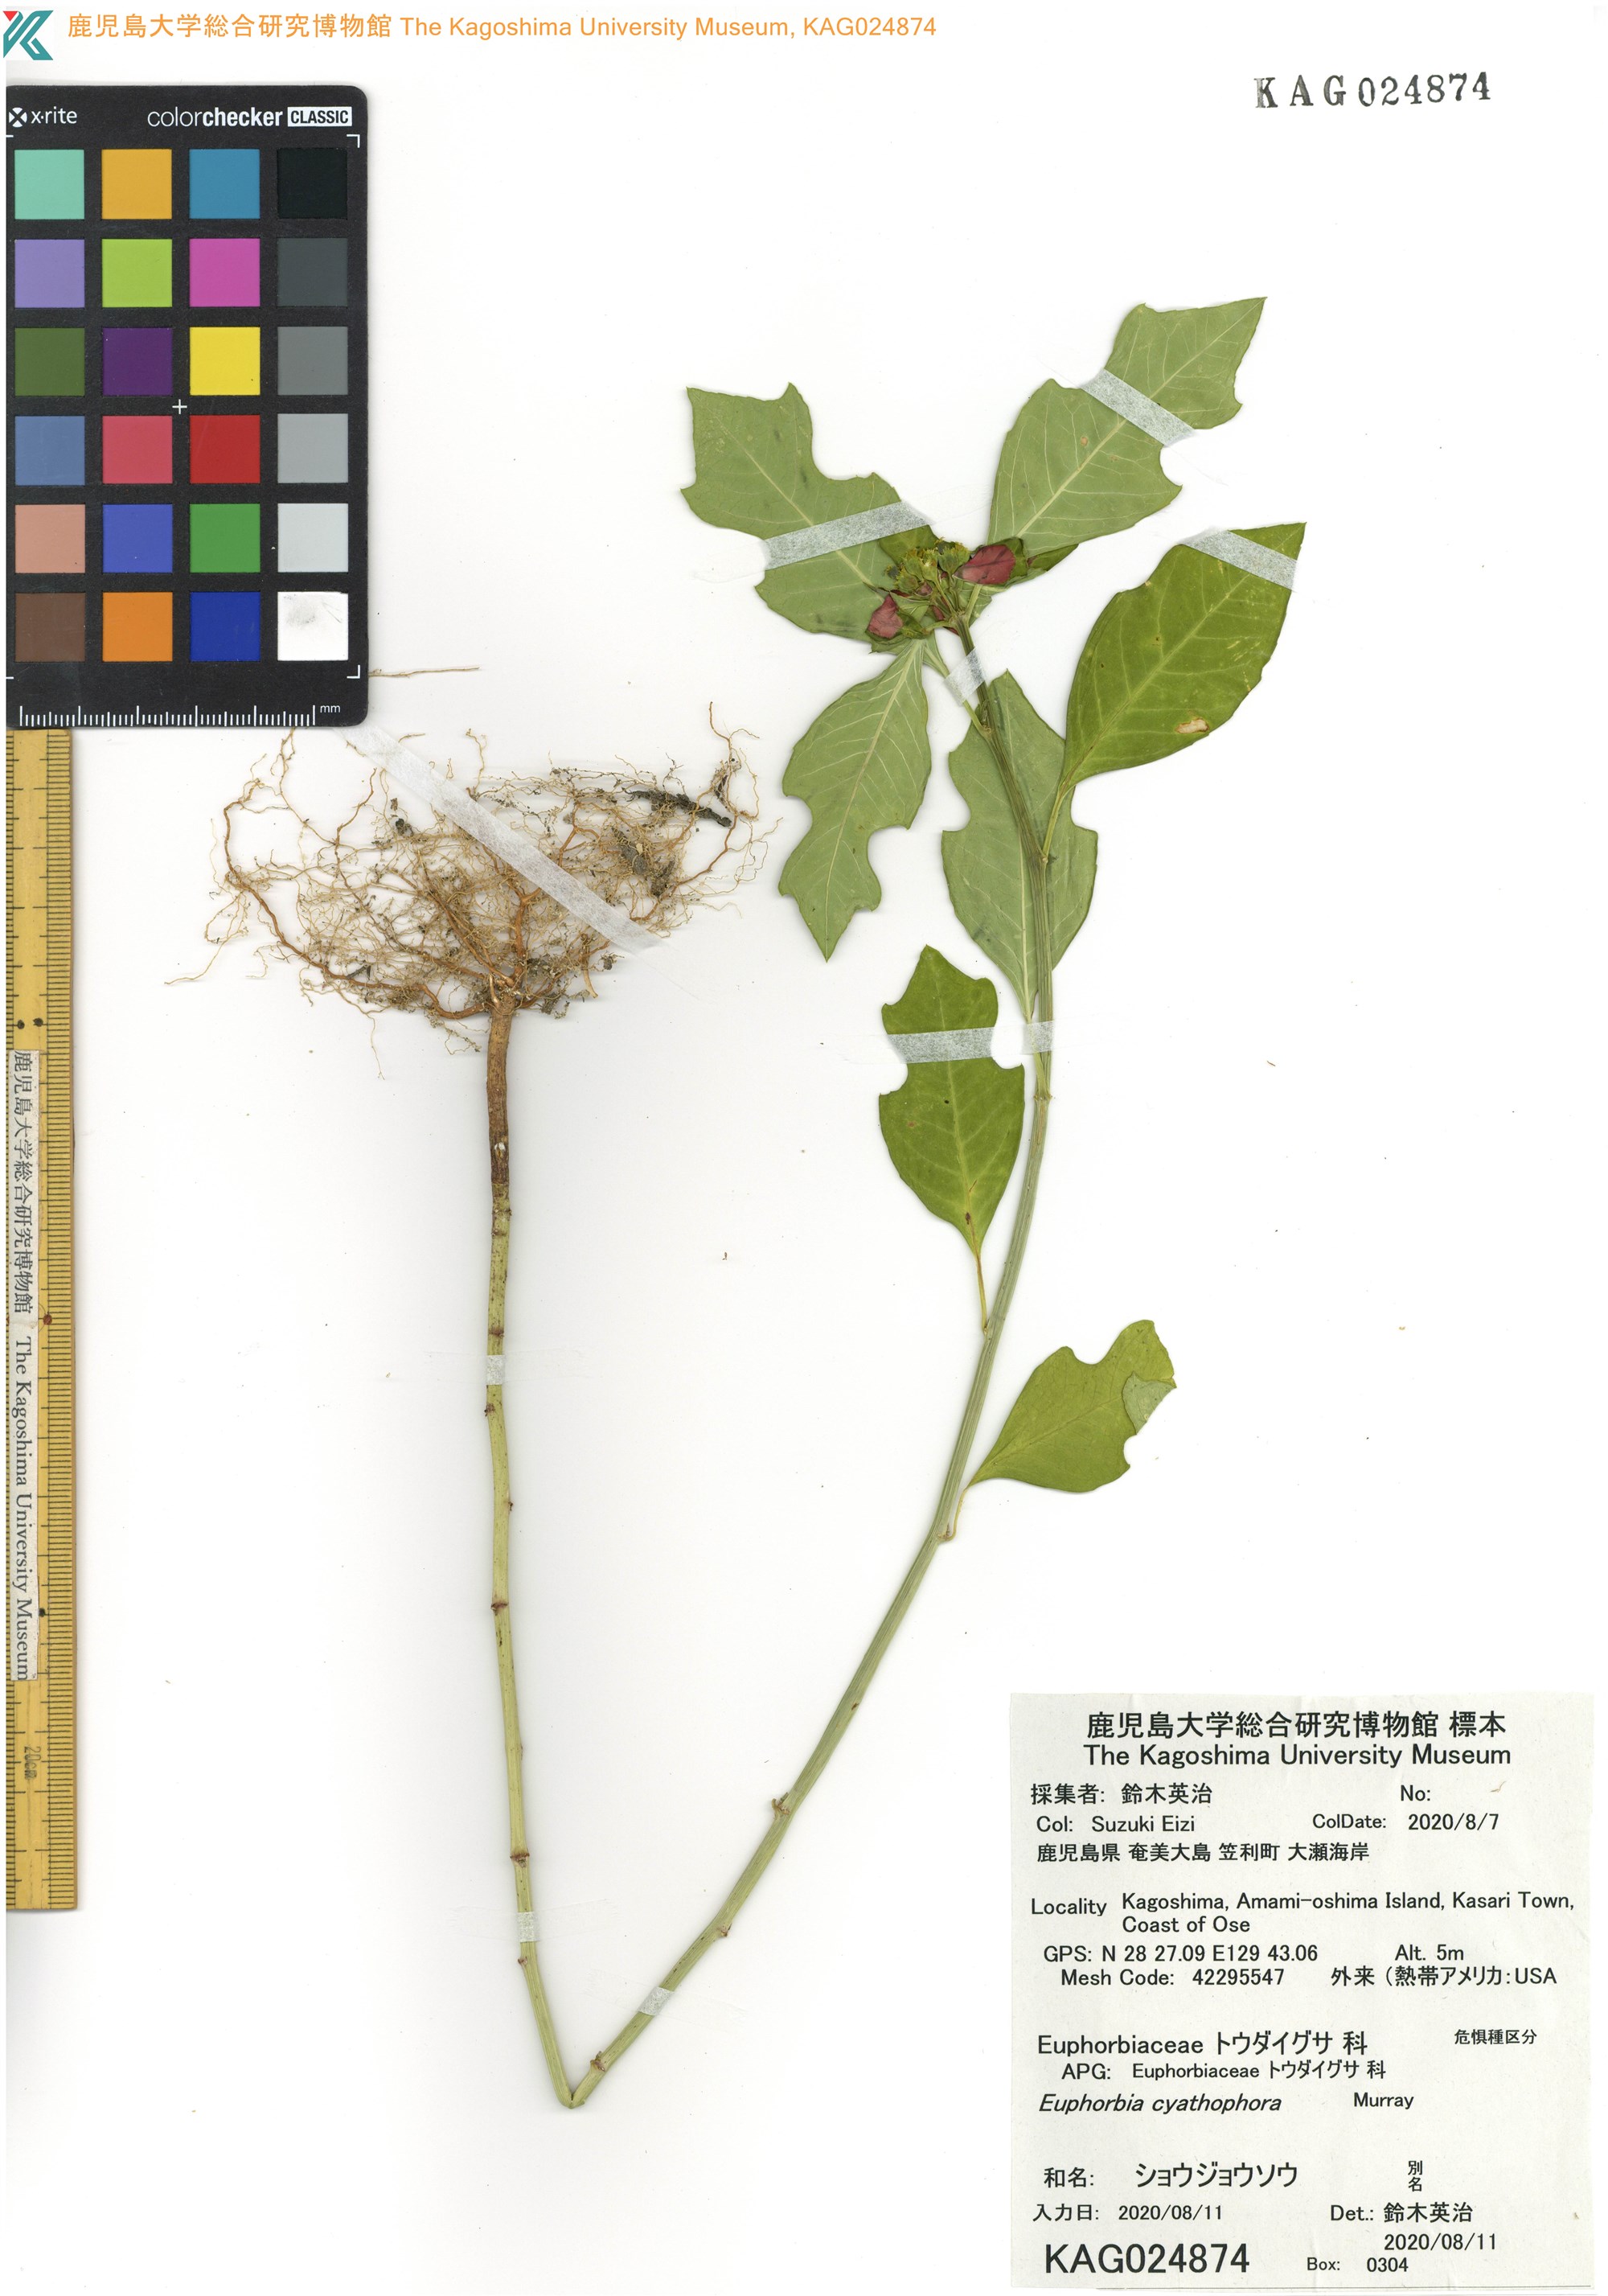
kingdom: Plantae
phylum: Tracheophyta
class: Magnoliopsida
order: Malpighiales
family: Euphorbiaceae
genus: Euphorbia
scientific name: Euphorbia heterophylla
